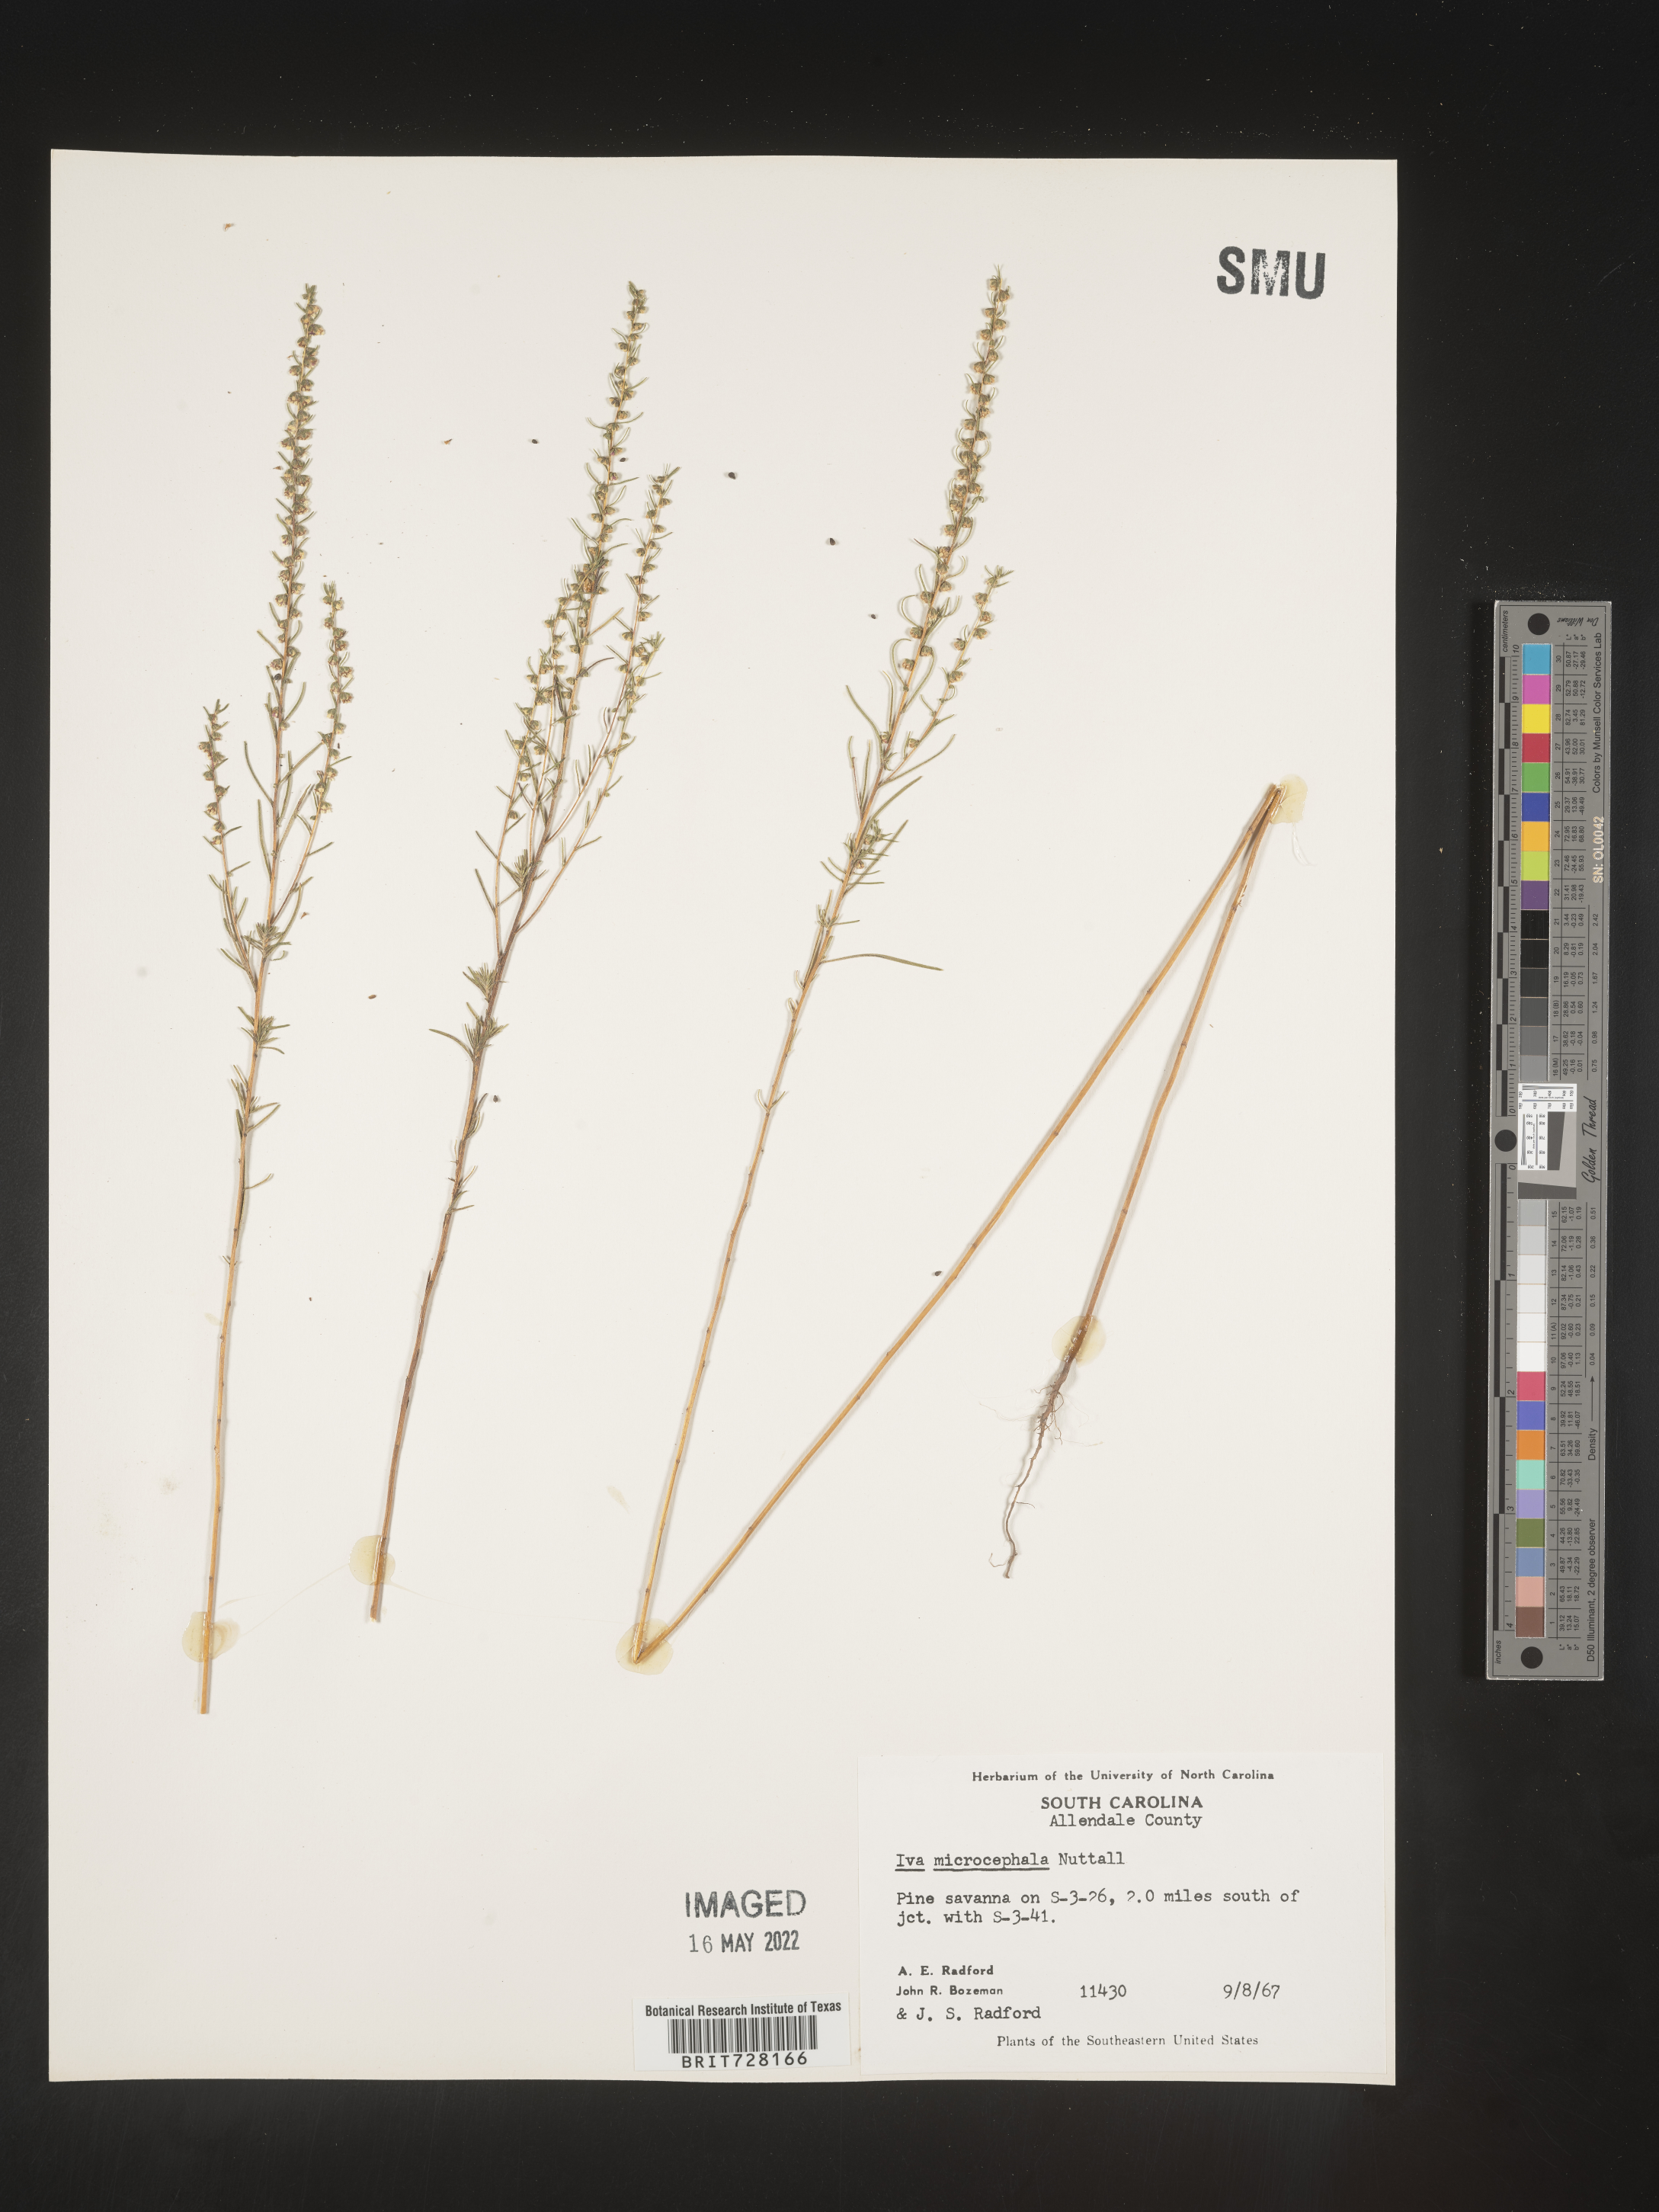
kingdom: Plantae
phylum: Tracheophyta
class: Magnoliopsida
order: Asterales
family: Asteraceae
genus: Iva
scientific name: Iva microcephala
